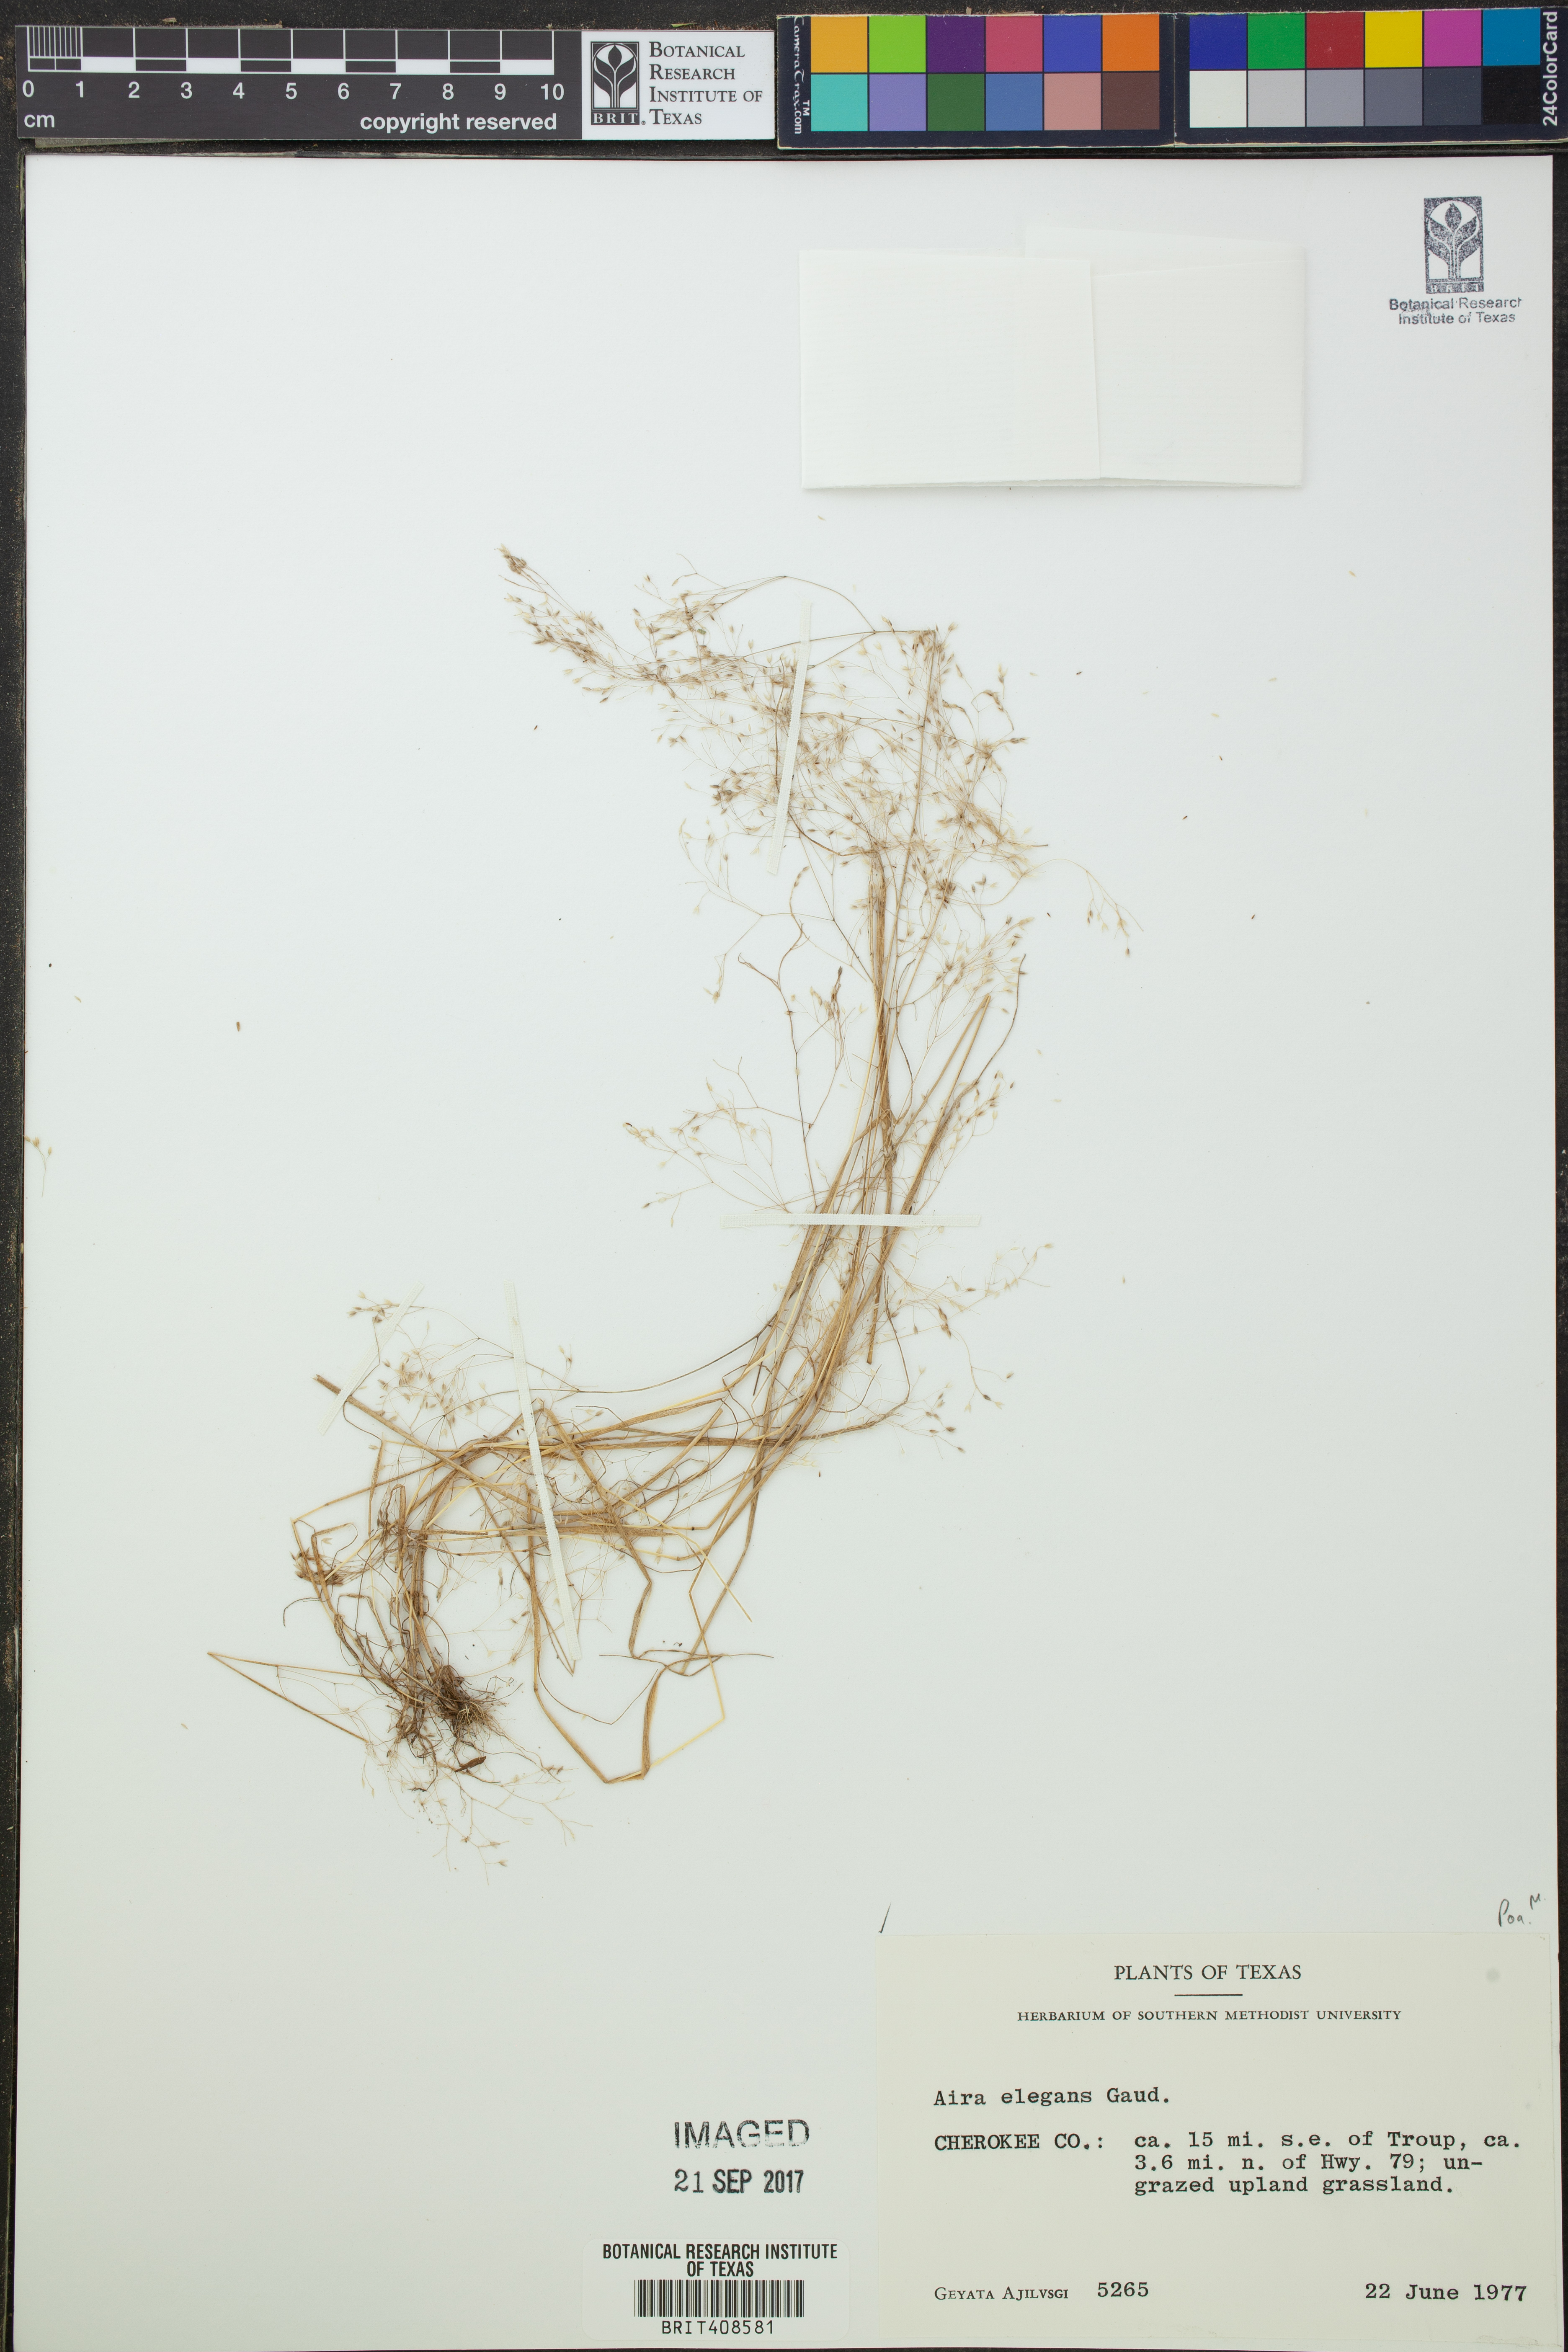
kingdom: Plantae
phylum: Tracheophyta
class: Liliopsida
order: Poales
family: Poaceae
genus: Aira
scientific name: Aira elegans
